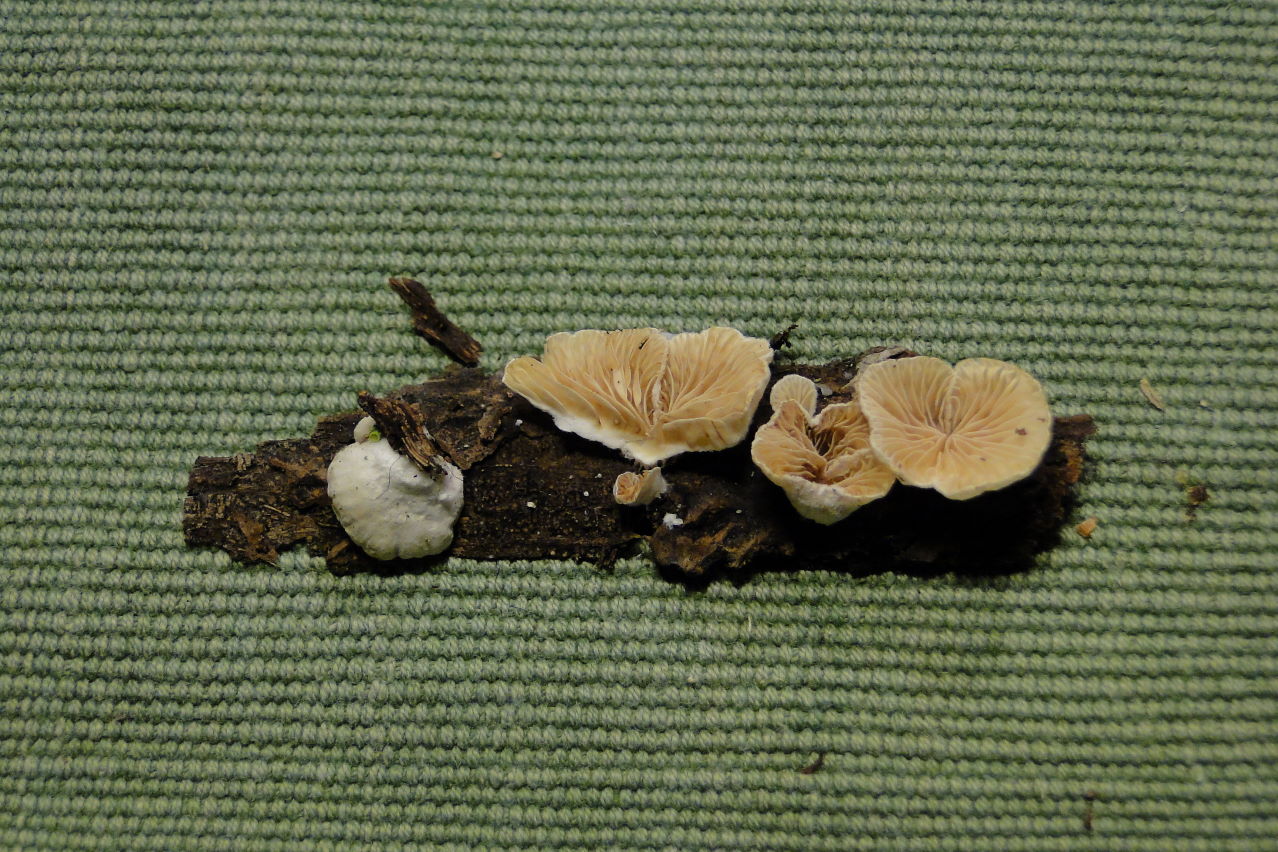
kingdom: Fungi
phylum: Basidiomycota
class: Agaricomycetes
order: Agaricales
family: Crepidotaceae
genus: Crepidotus
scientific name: Crepidotus kubickae
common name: gran-muslingesvamp
